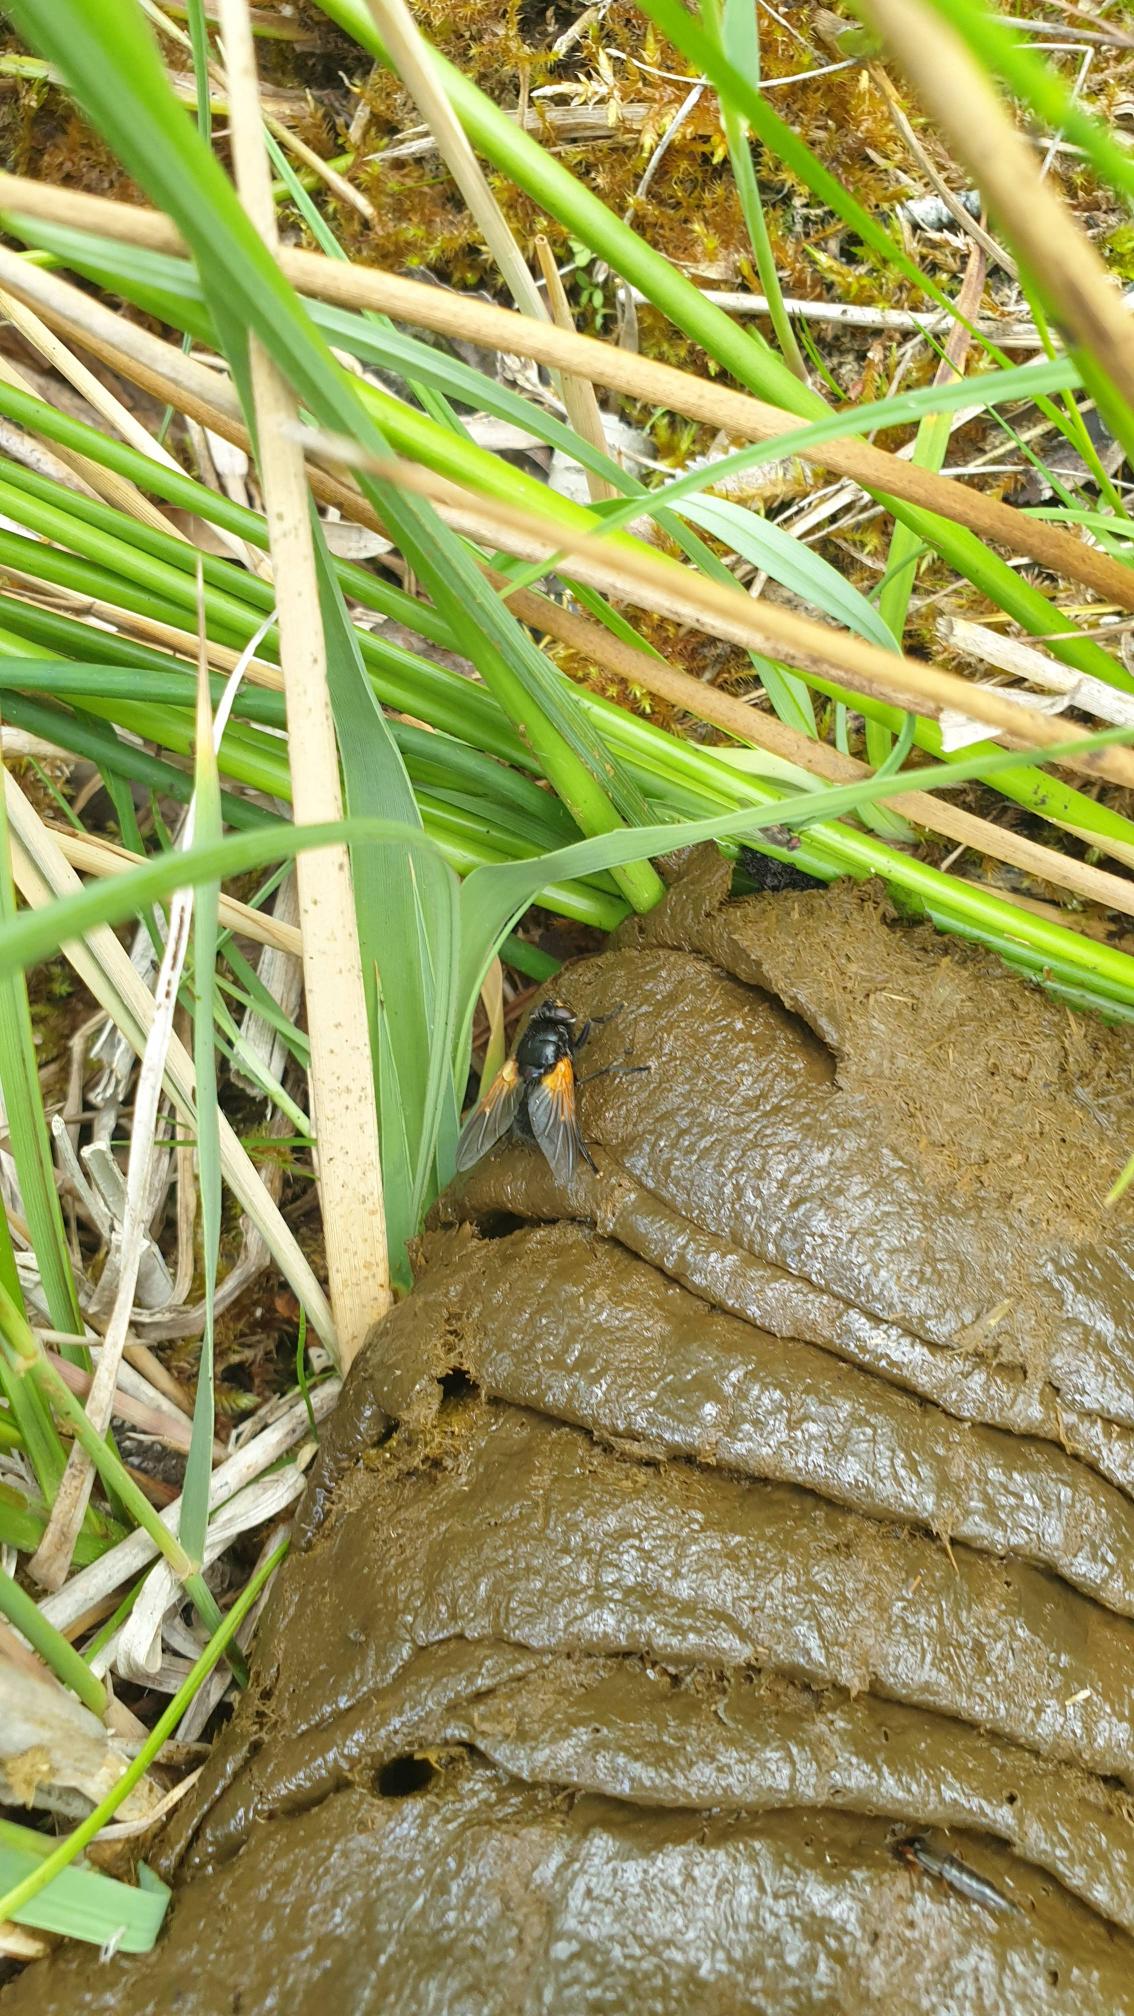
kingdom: Animalia
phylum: Arthropoda
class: Insecta
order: Diptera
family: Muscidae
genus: Mesembrina
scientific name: Mesembrina meridiana
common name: Gulvinget flue
